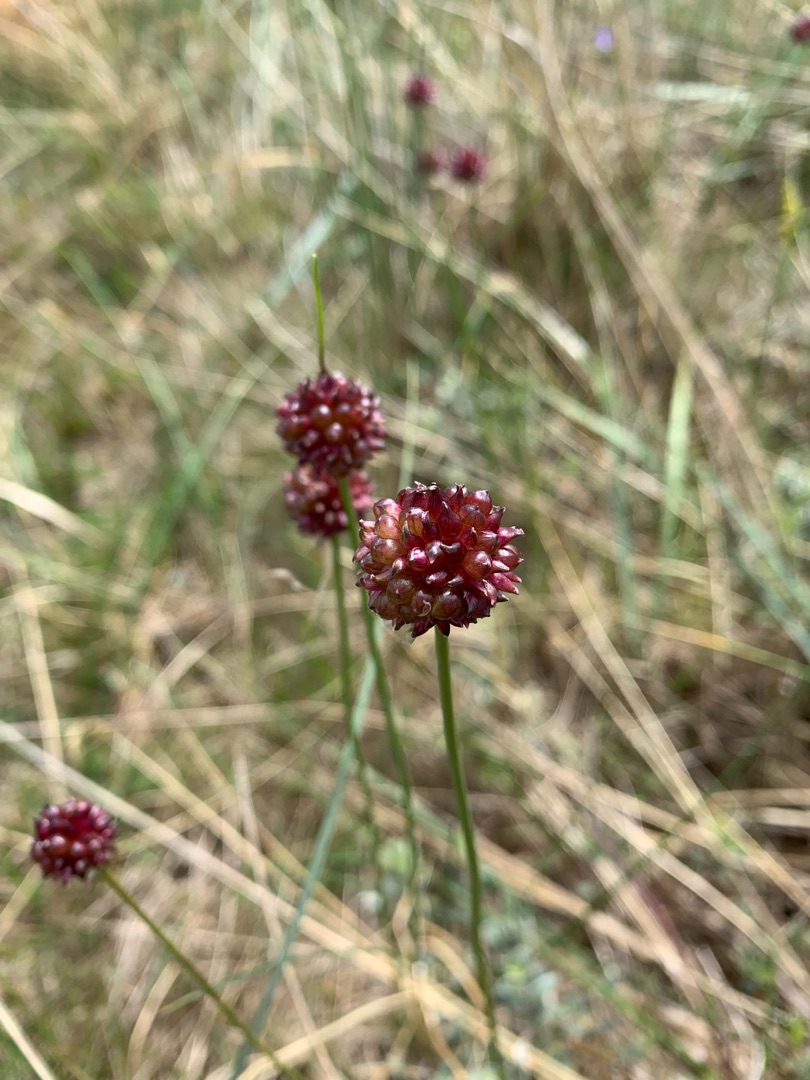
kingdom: Plantae
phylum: Tracheophyta
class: Liliopsida
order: Asparagales
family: Amaryllidaceae
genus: Allium
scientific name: Allium vineale
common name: Sand-løg
